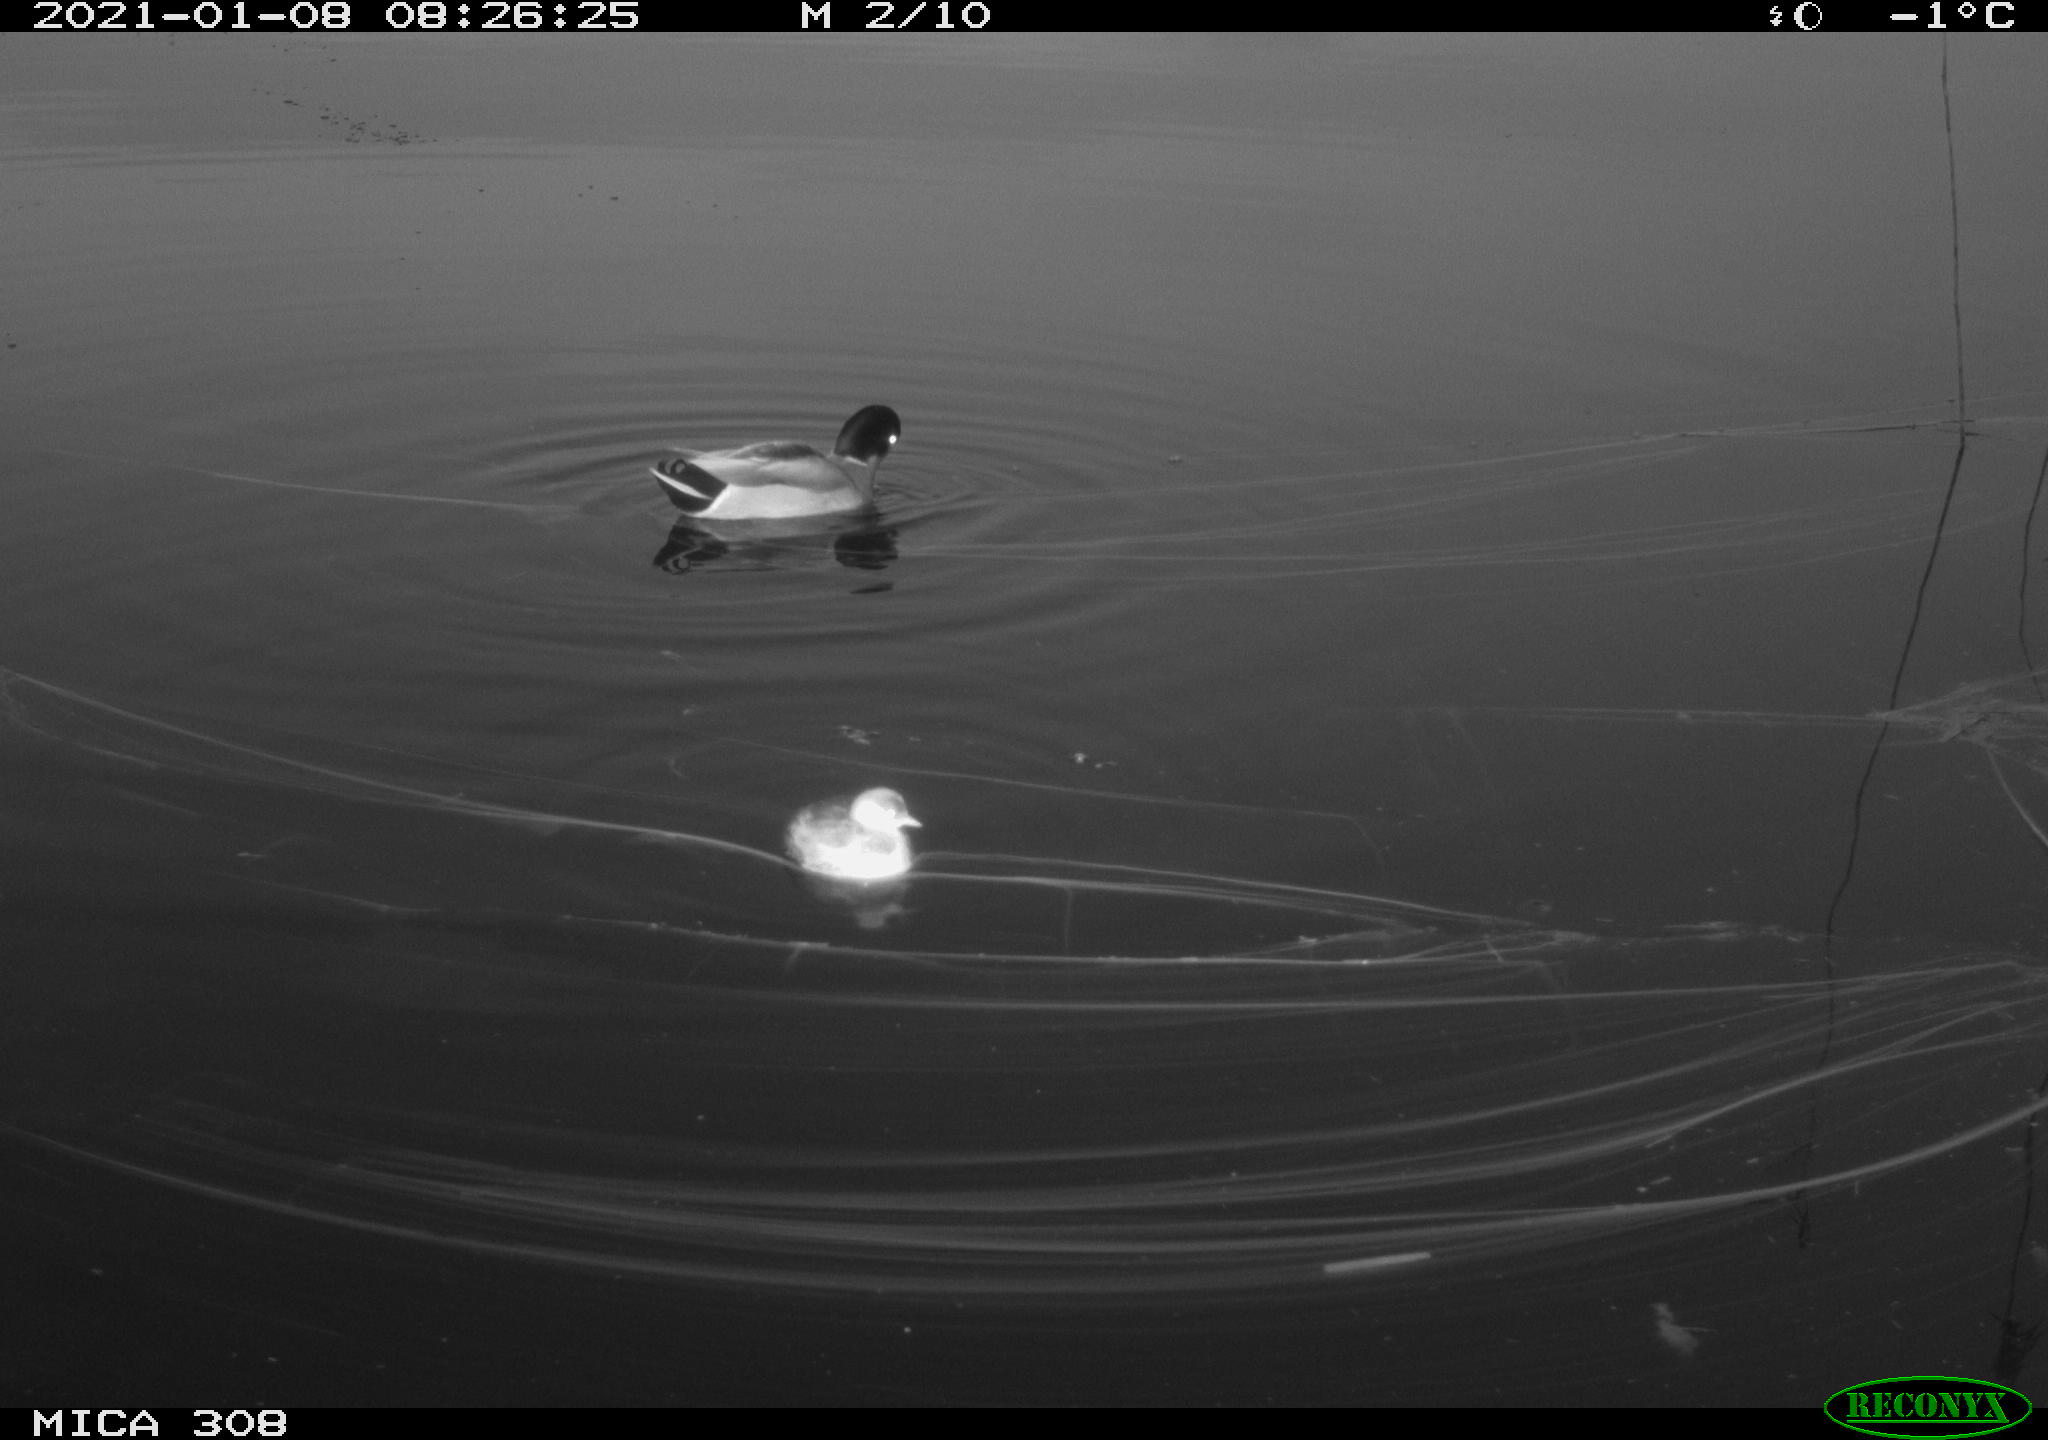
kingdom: Animalia
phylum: Chordata
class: Aves
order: Anseriformes
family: Anatidae
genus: Anas
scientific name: Anas platyrhynchos
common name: Mallard
